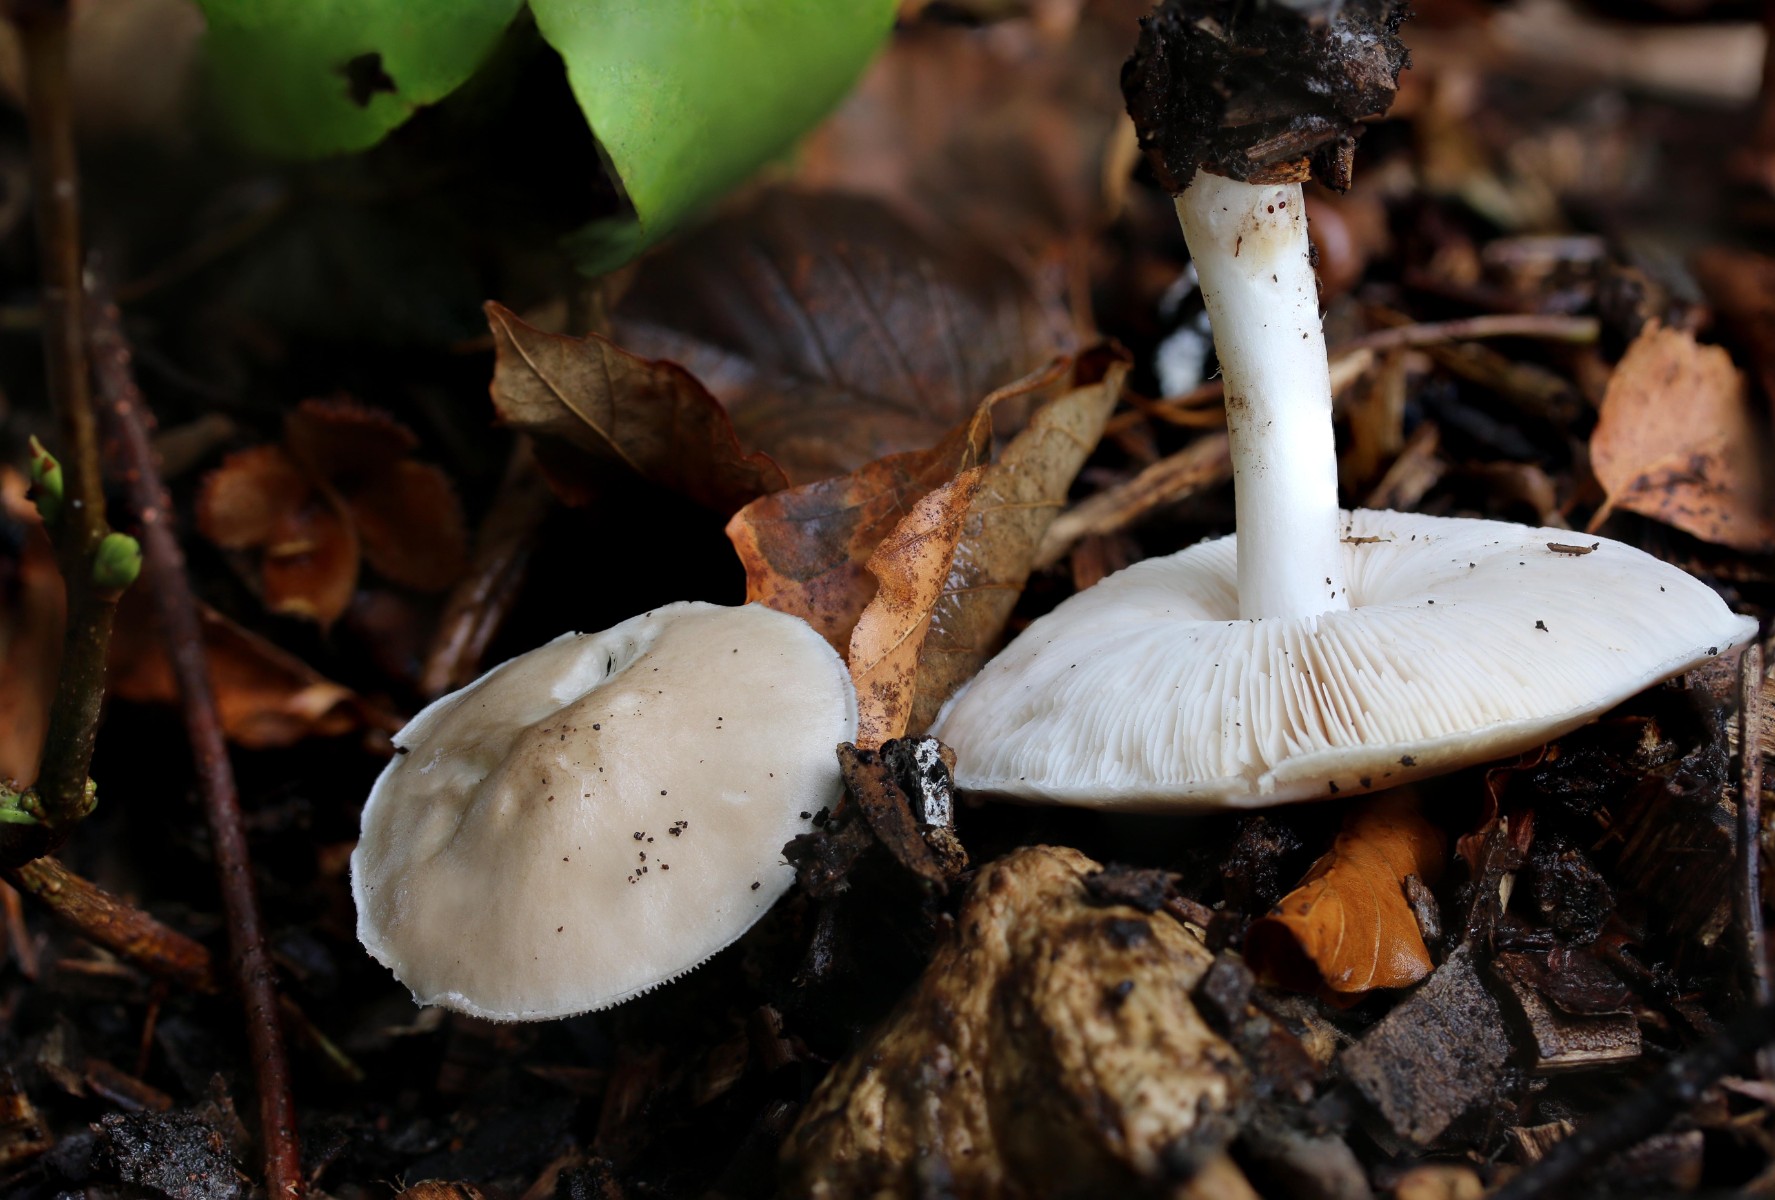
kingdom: Fungi
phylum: Basidiomycota
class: Agaricomycetes
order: Agaricales
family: Pluteaceae
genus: Pluteus
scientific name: Pluteus cervinus
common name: sodfarvet skærmhat
